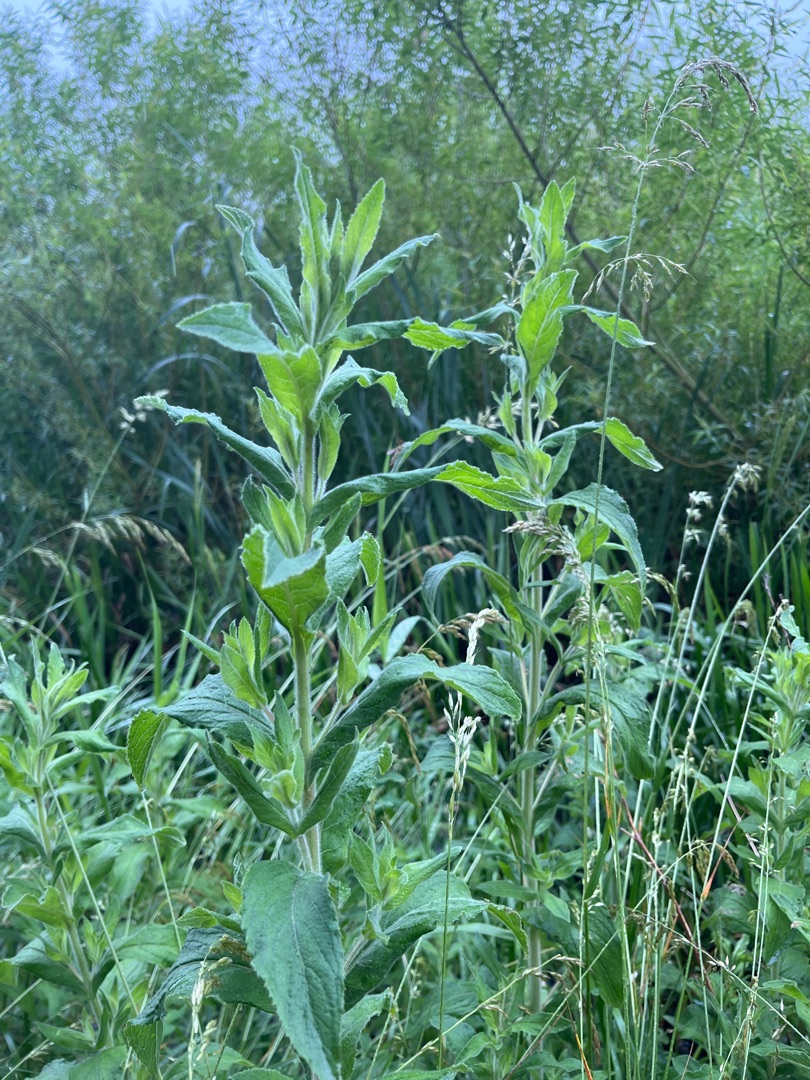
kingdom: Plantae
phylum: Tracheophyta
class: Magnoliopsida
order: Myrtales
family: Onagraceae
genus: Epilobium
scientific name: Epilobium hirsutum
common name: Lådden dueurt
